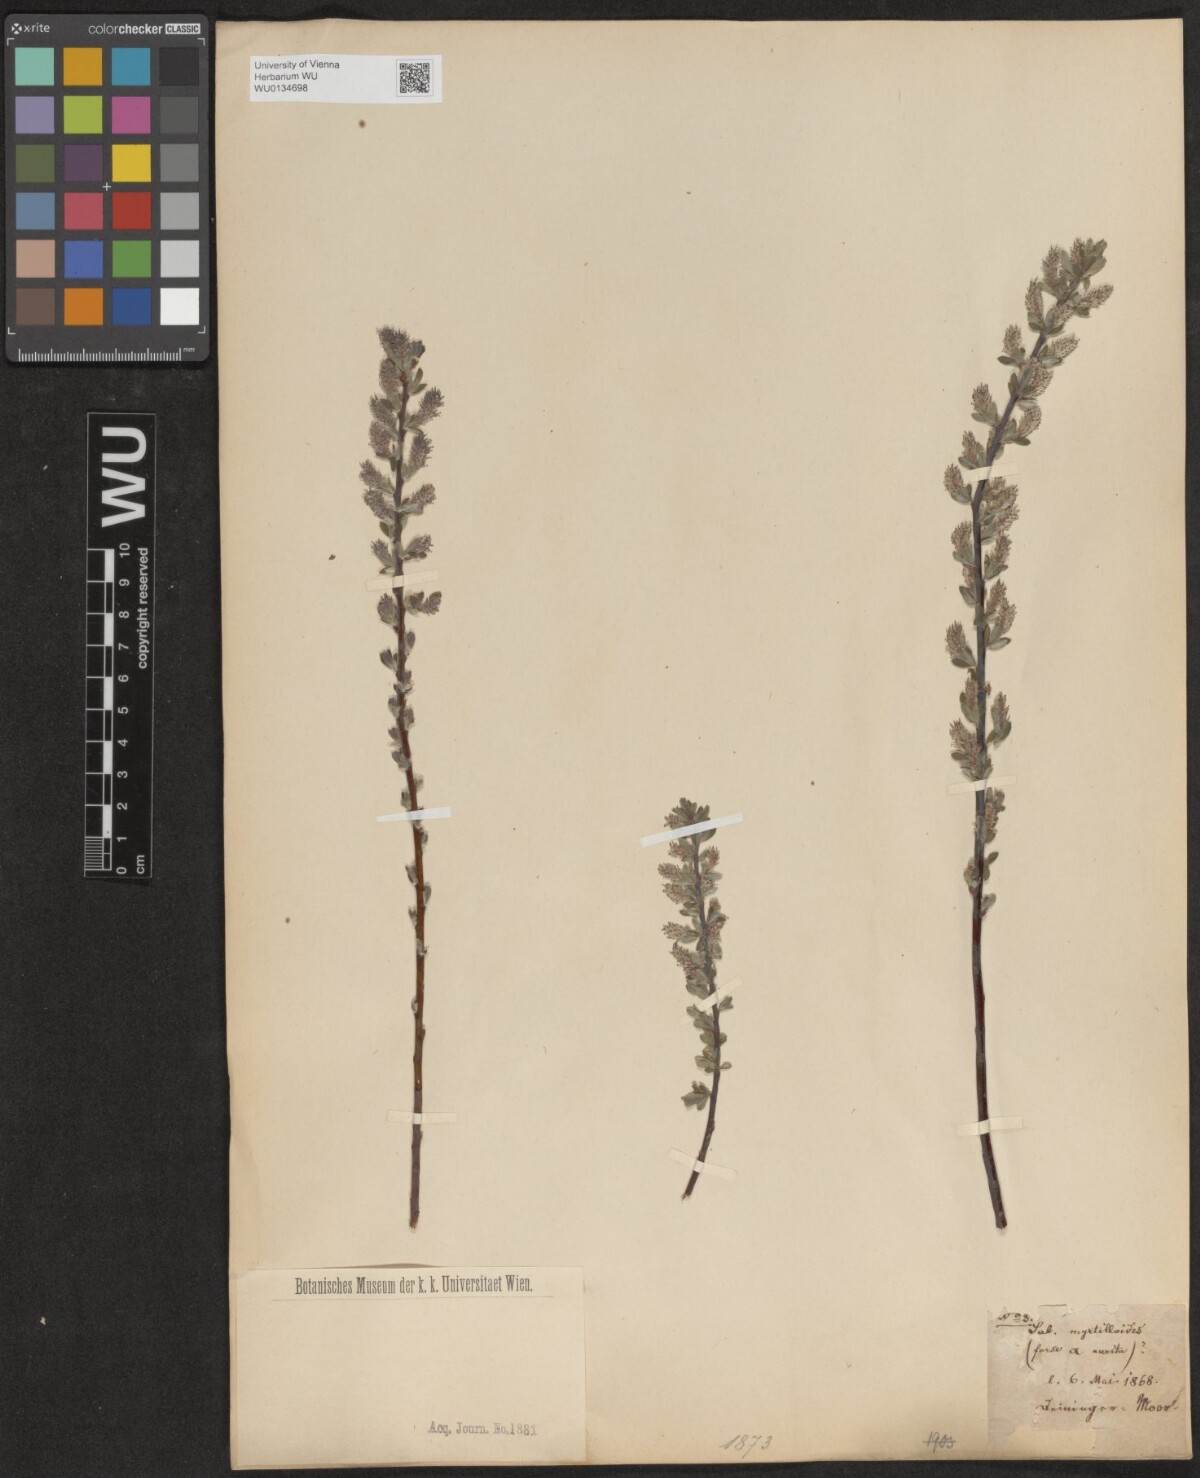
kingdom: Plantae
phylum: Tracheophyta
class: Magnoliopsida
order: Malpighiales
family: Salicaceae
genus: Salix
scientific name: Salix
